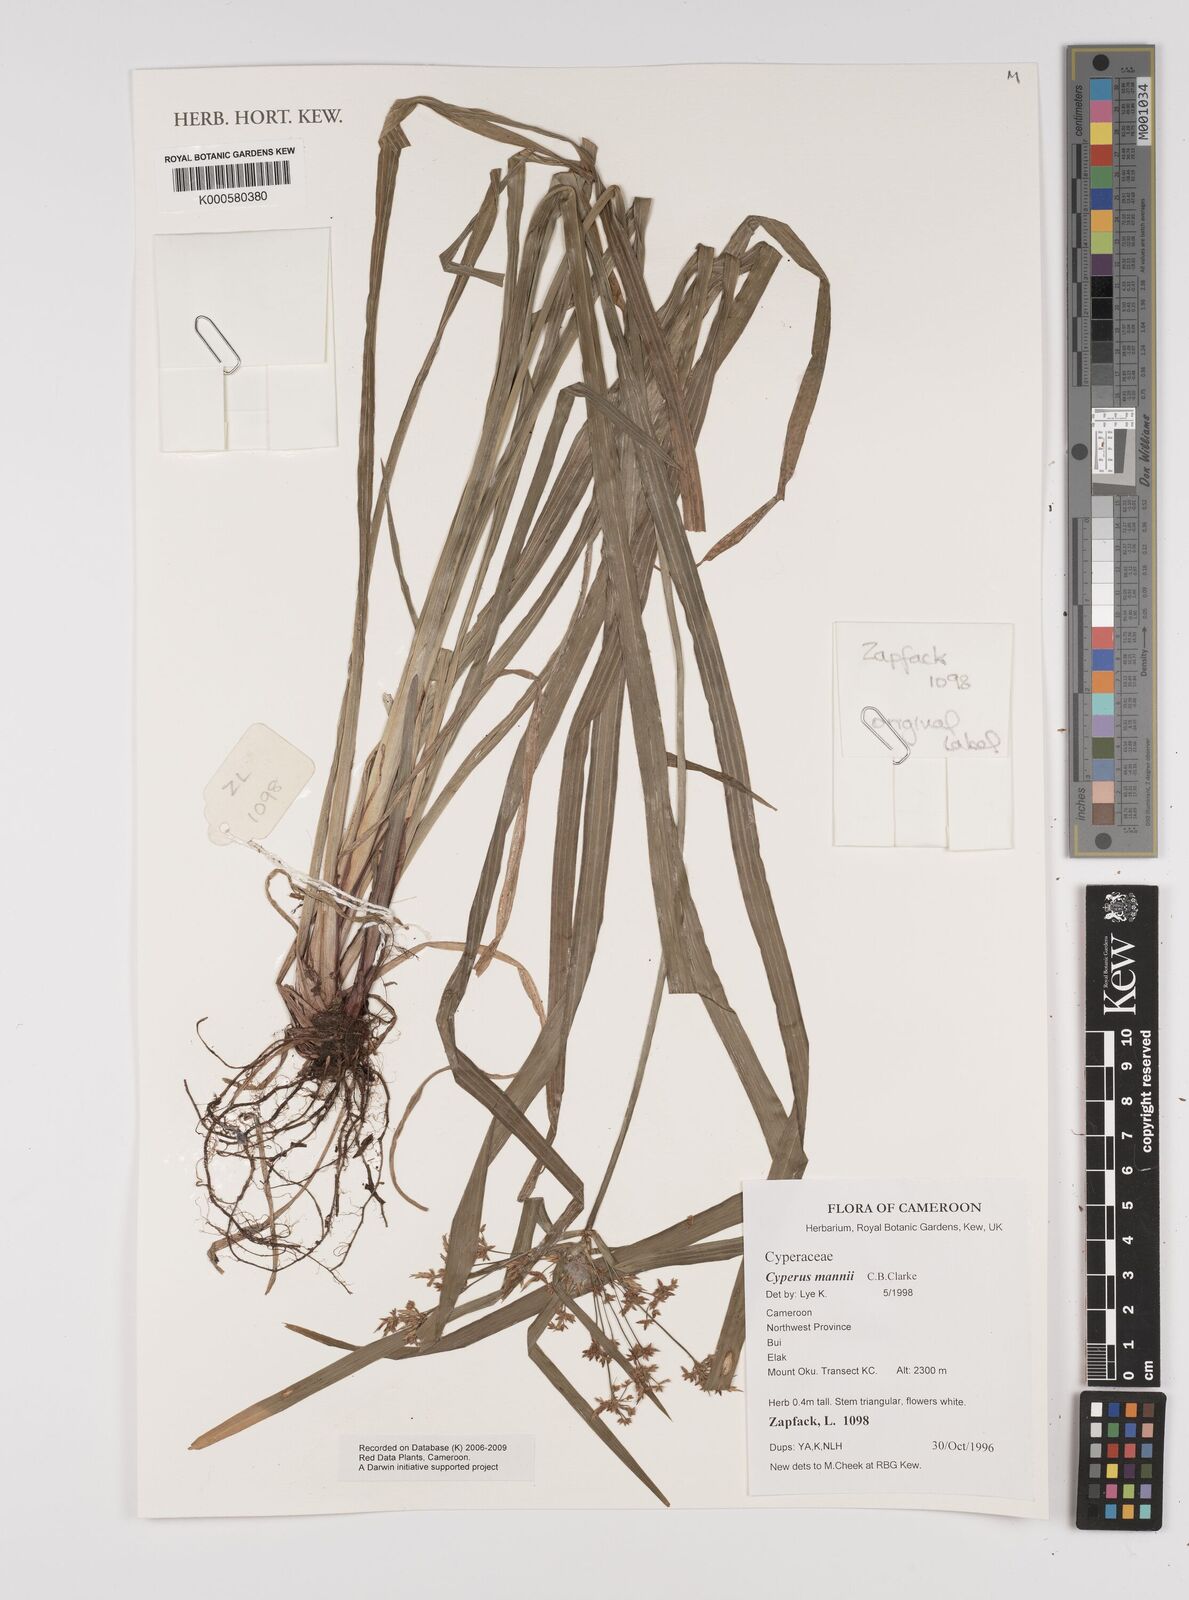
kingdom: Plantae
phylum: Tracheophyta
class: Liliopsida
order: Poales
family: Cyperaceae
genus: Cyperus
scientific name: Cyperus baronii
